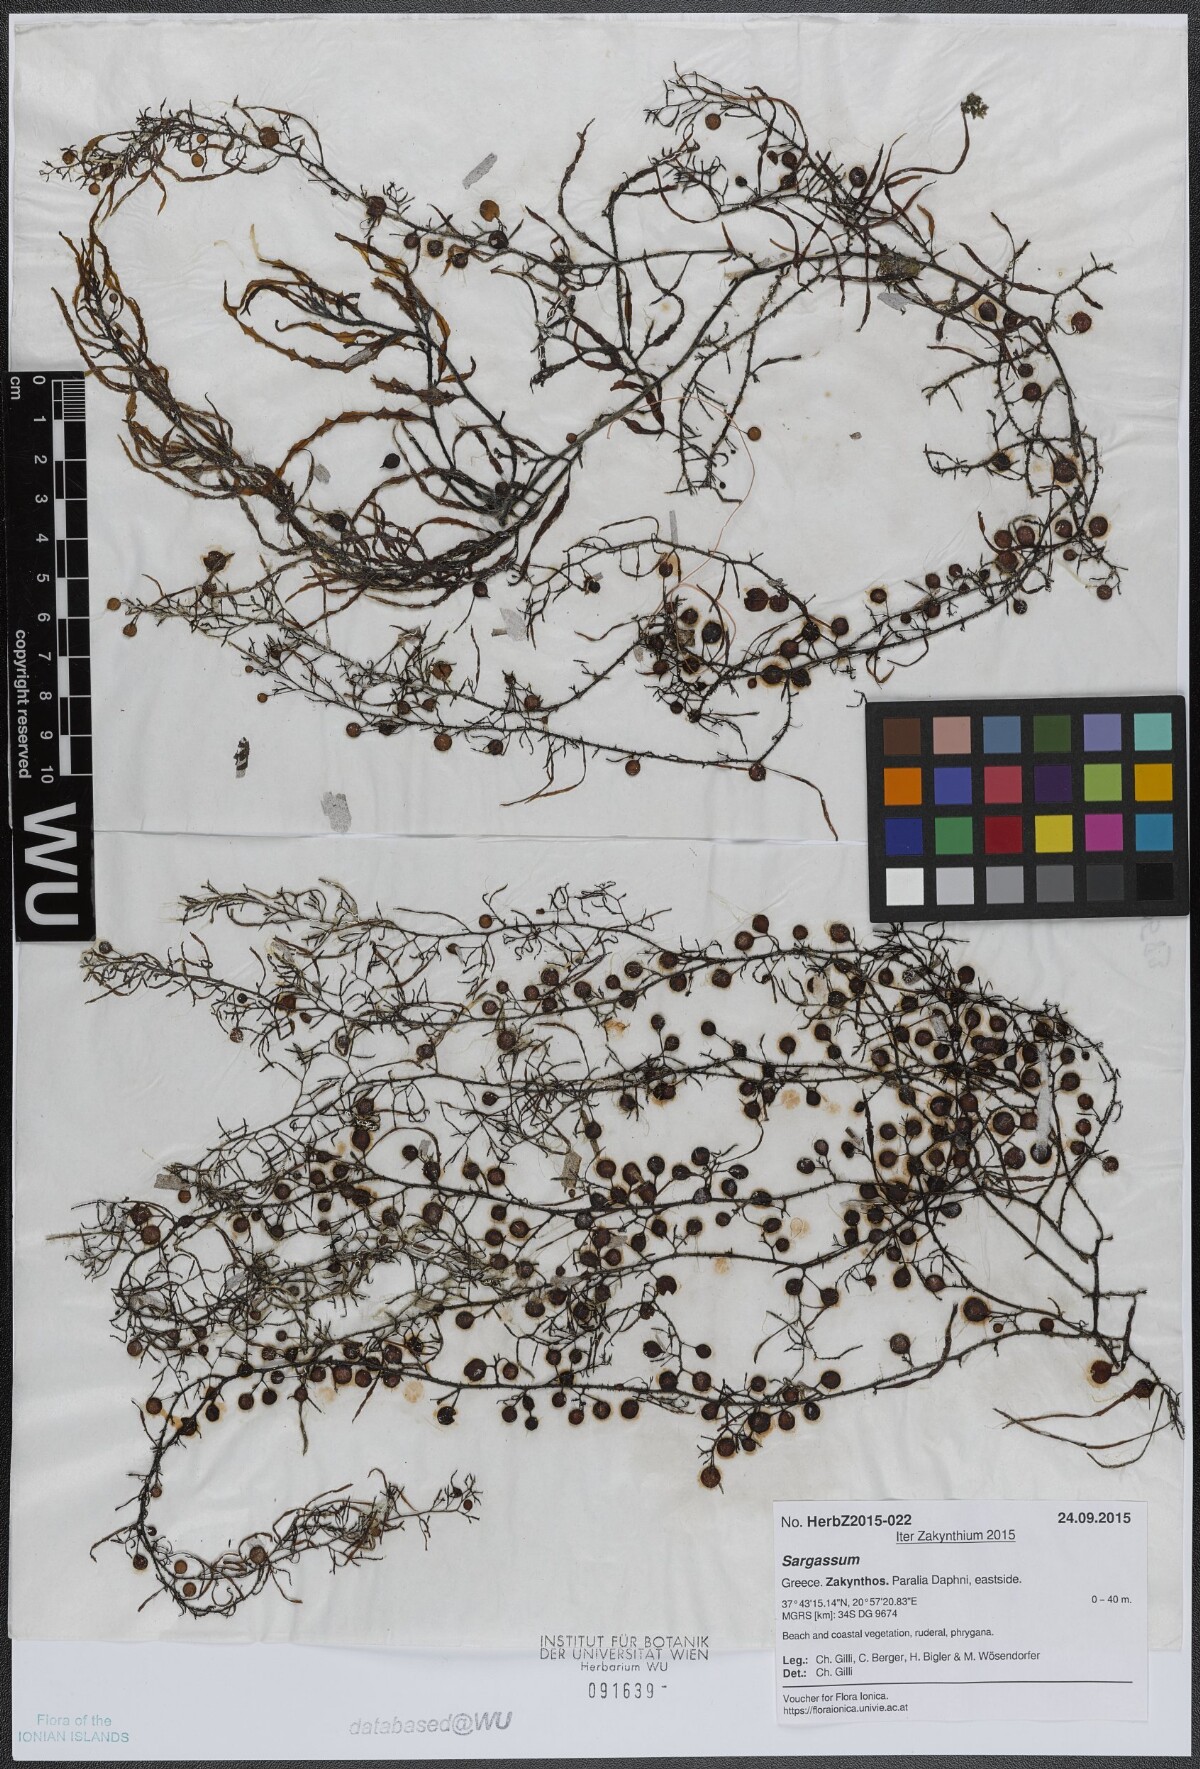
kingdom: Chromista
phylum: Ochrophyta
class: Phaeophyceae
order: Fucales
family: Sargassaceae
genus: Sargassum
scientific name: Sargassum
